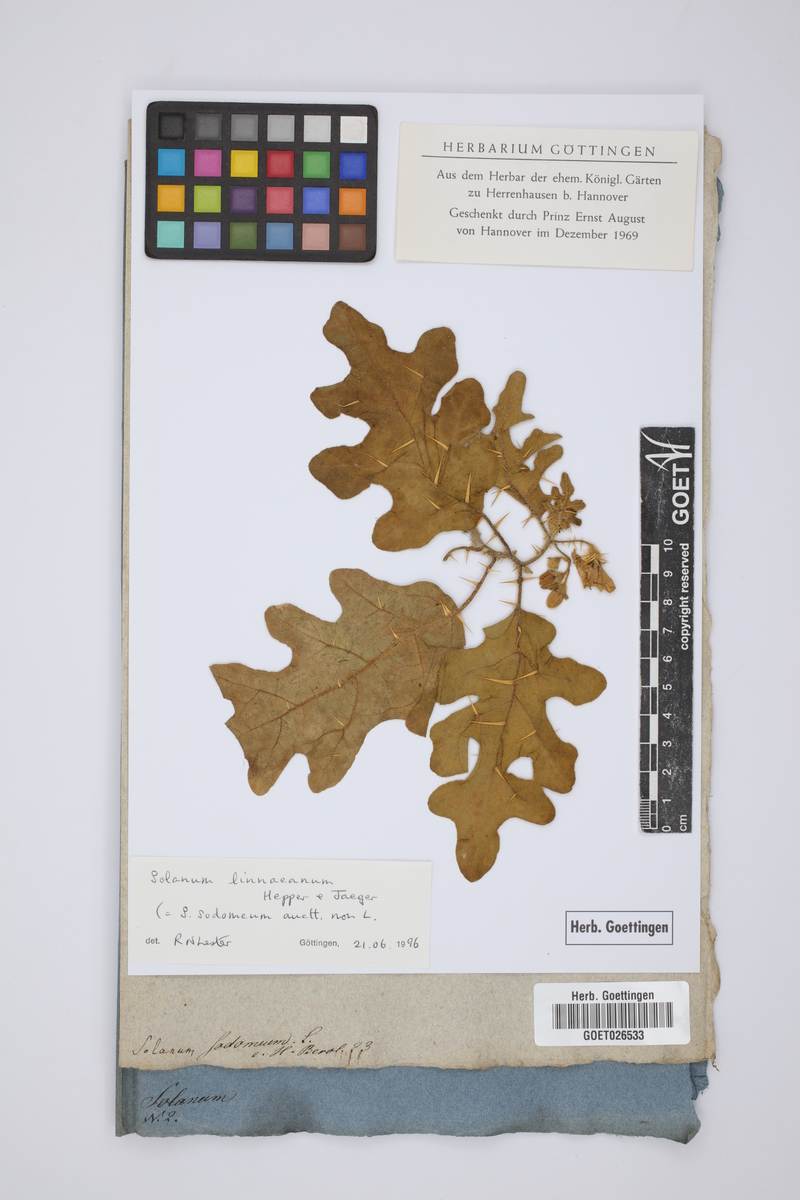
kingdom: Plantae
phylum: Tracheophyta
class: Magnoliopsida
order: Solanales
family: Solanaceae
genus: Solanum
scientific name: Solanum linnaeanum
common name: Nightshade
